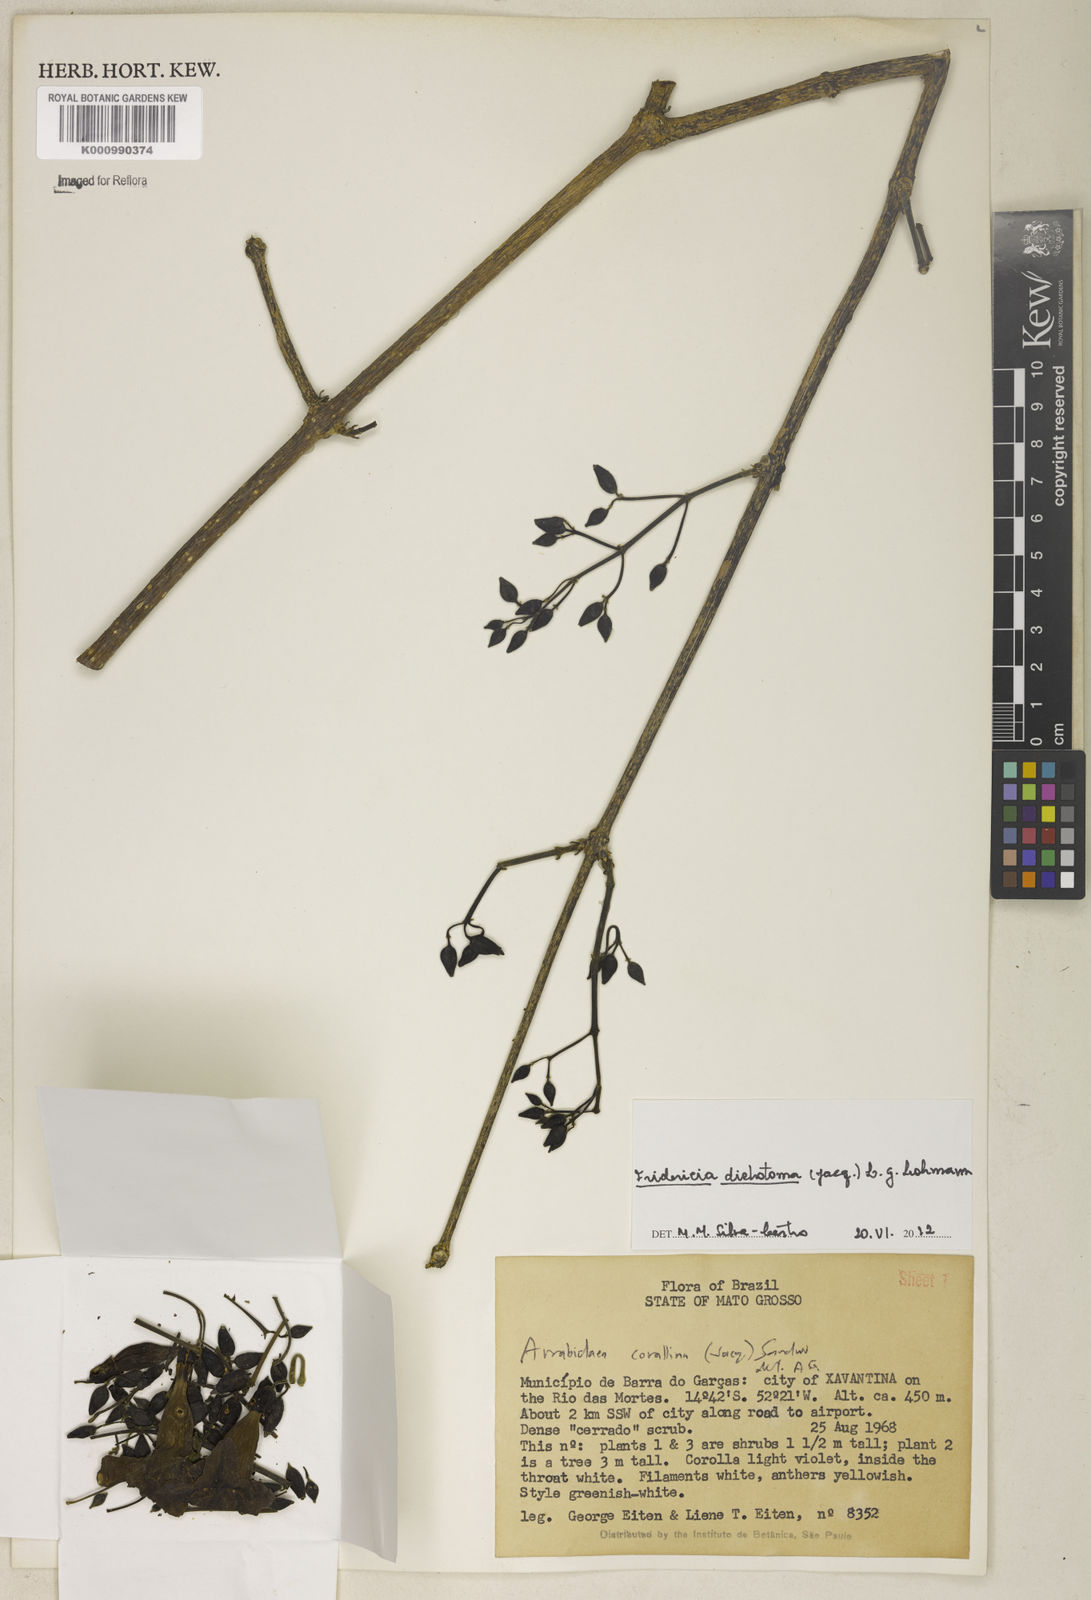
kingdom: Plantae
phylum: Tracheophyta
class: Magnoliopsida
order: Lamiales
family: Bignoniaceae
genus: Tanaecium
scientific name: Tanaecium dichotomum
